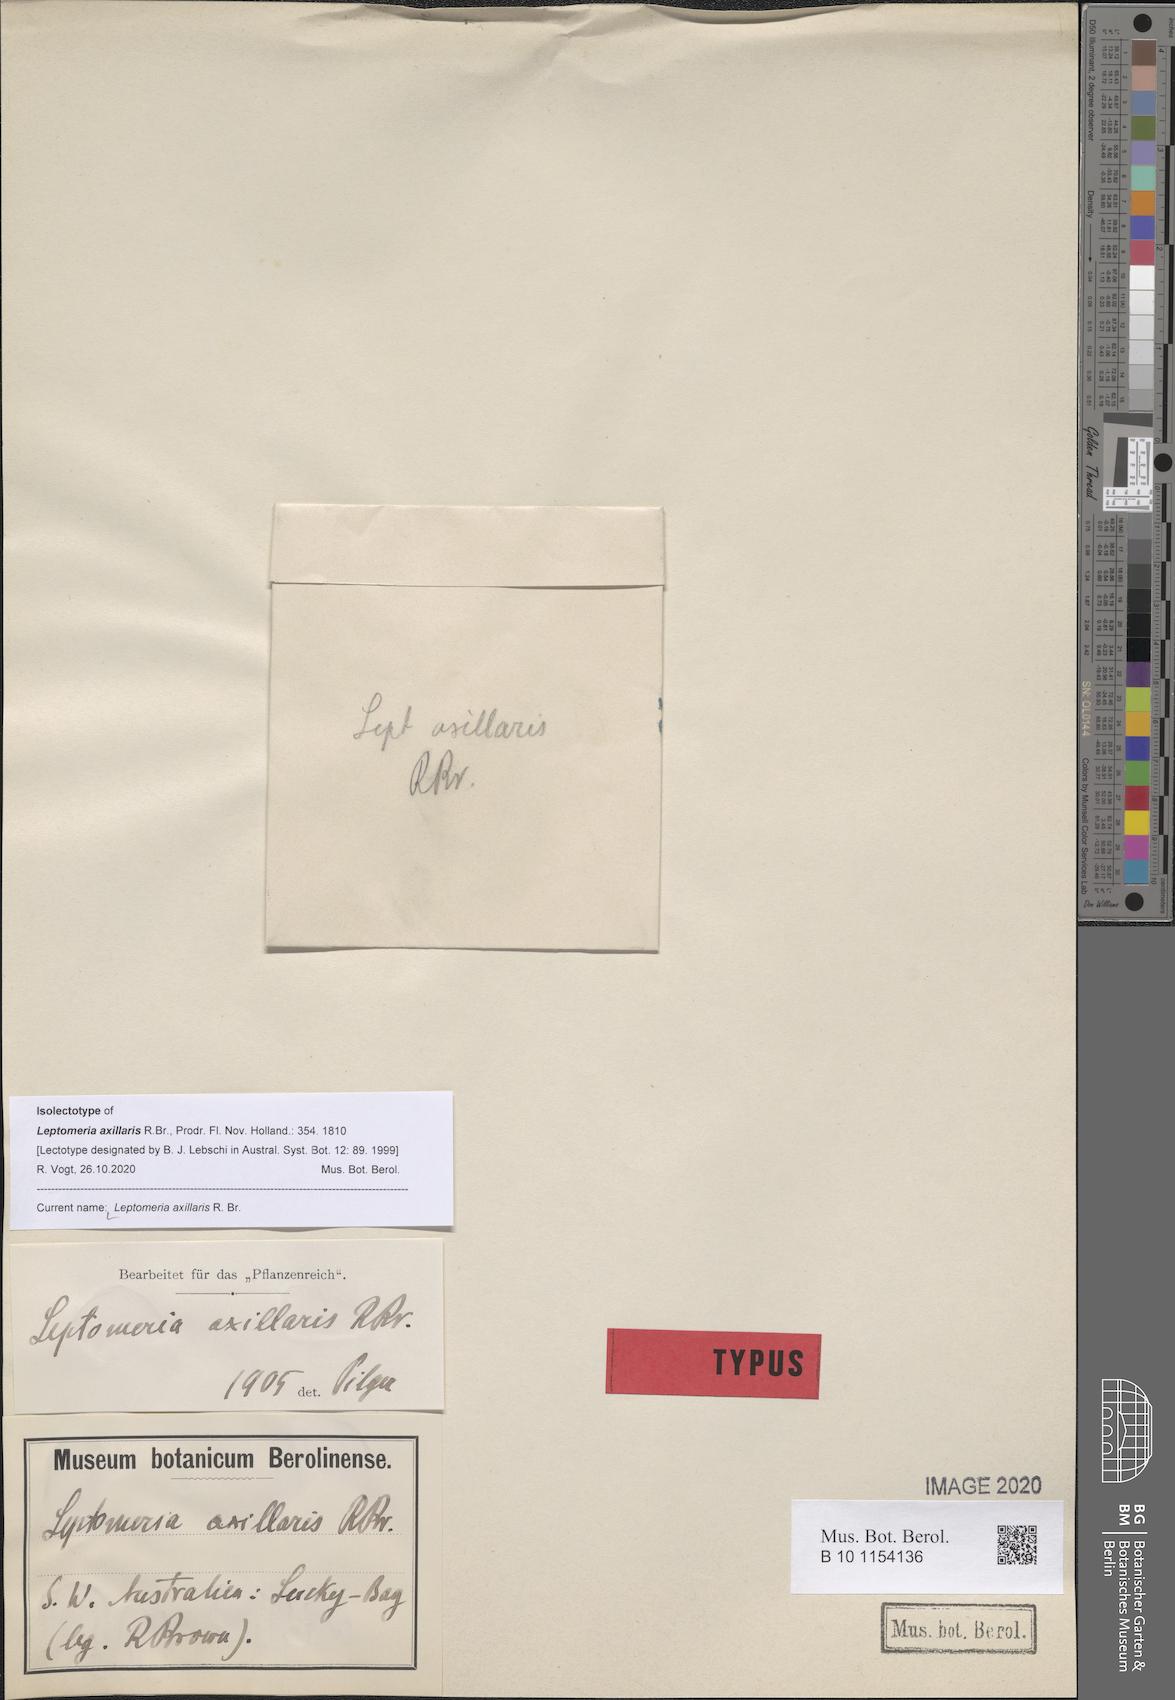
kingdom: Plantae
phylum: Tracheophyta
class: Magnoliopsida
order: Santalales
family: Amphorogynaceae
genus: Leptomeria
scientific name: Leptomeria axillaris
